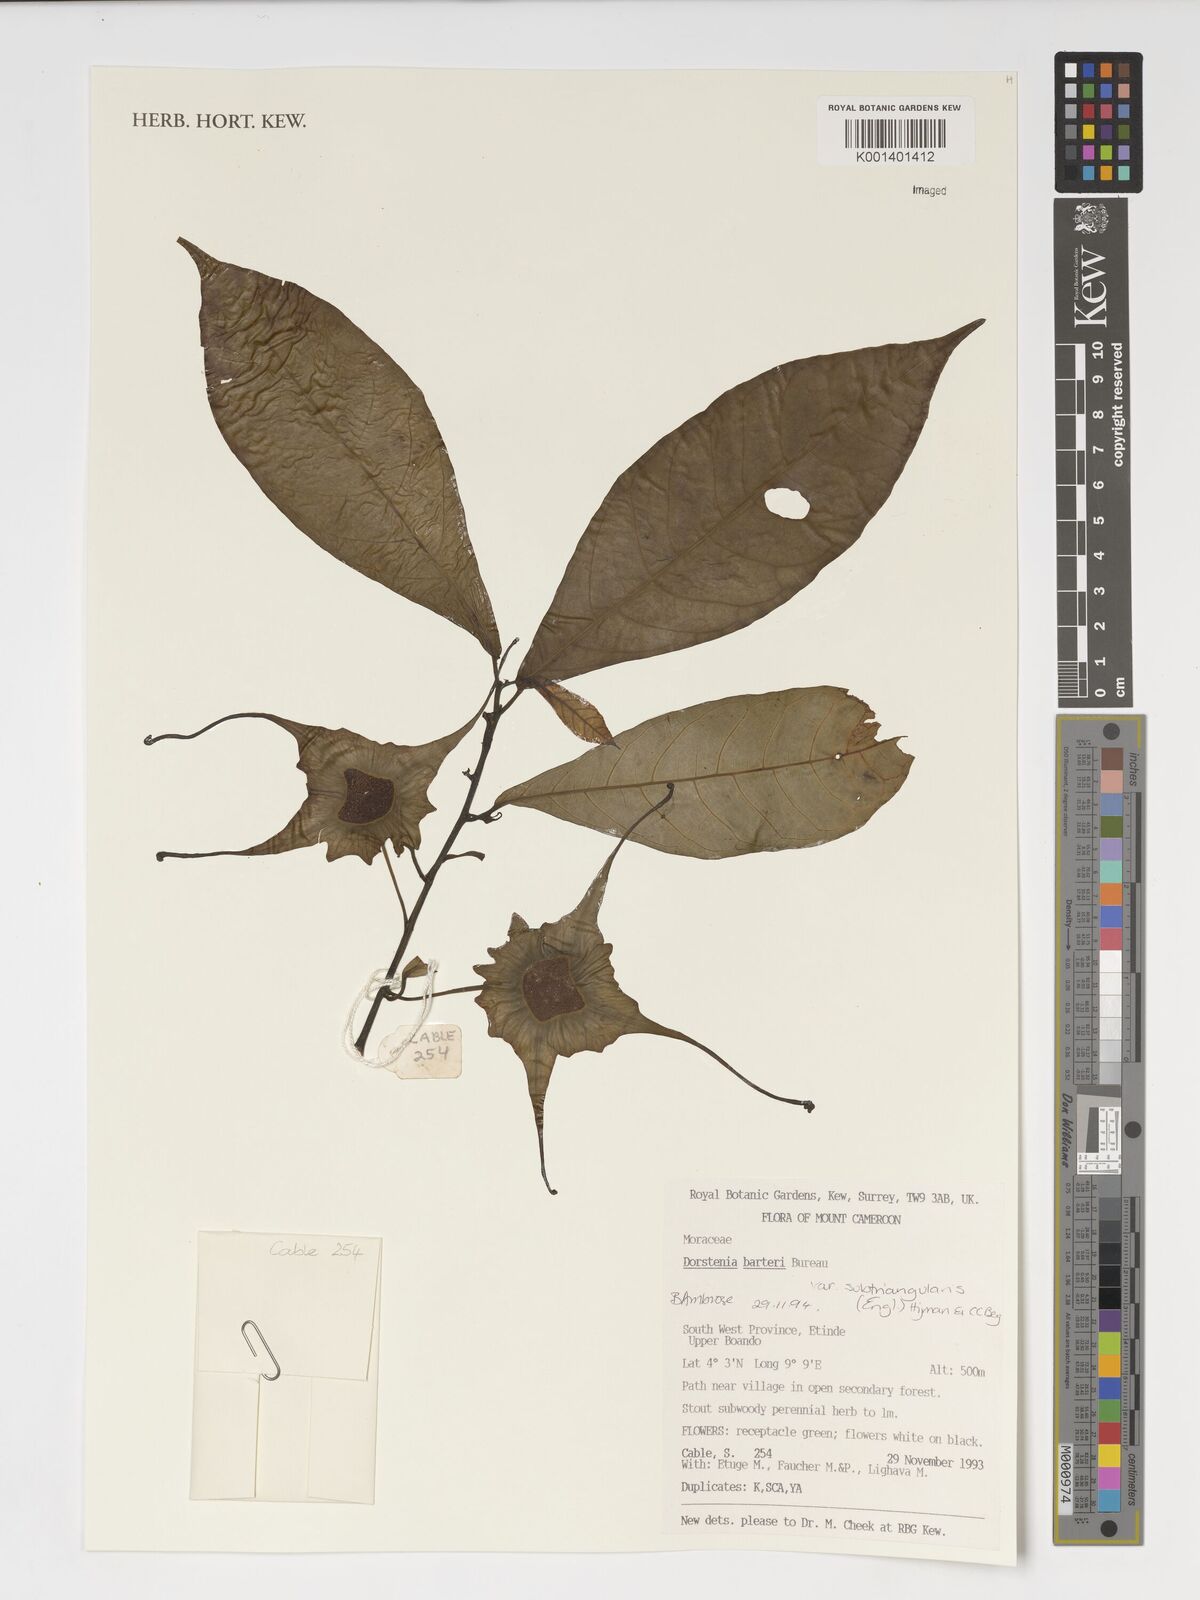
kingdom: Plantae
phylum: Tracheophyta
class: Magnoliopsida
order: Rosales
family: Moraceae
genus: Dorstenia
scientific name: Dorstenia barteri
